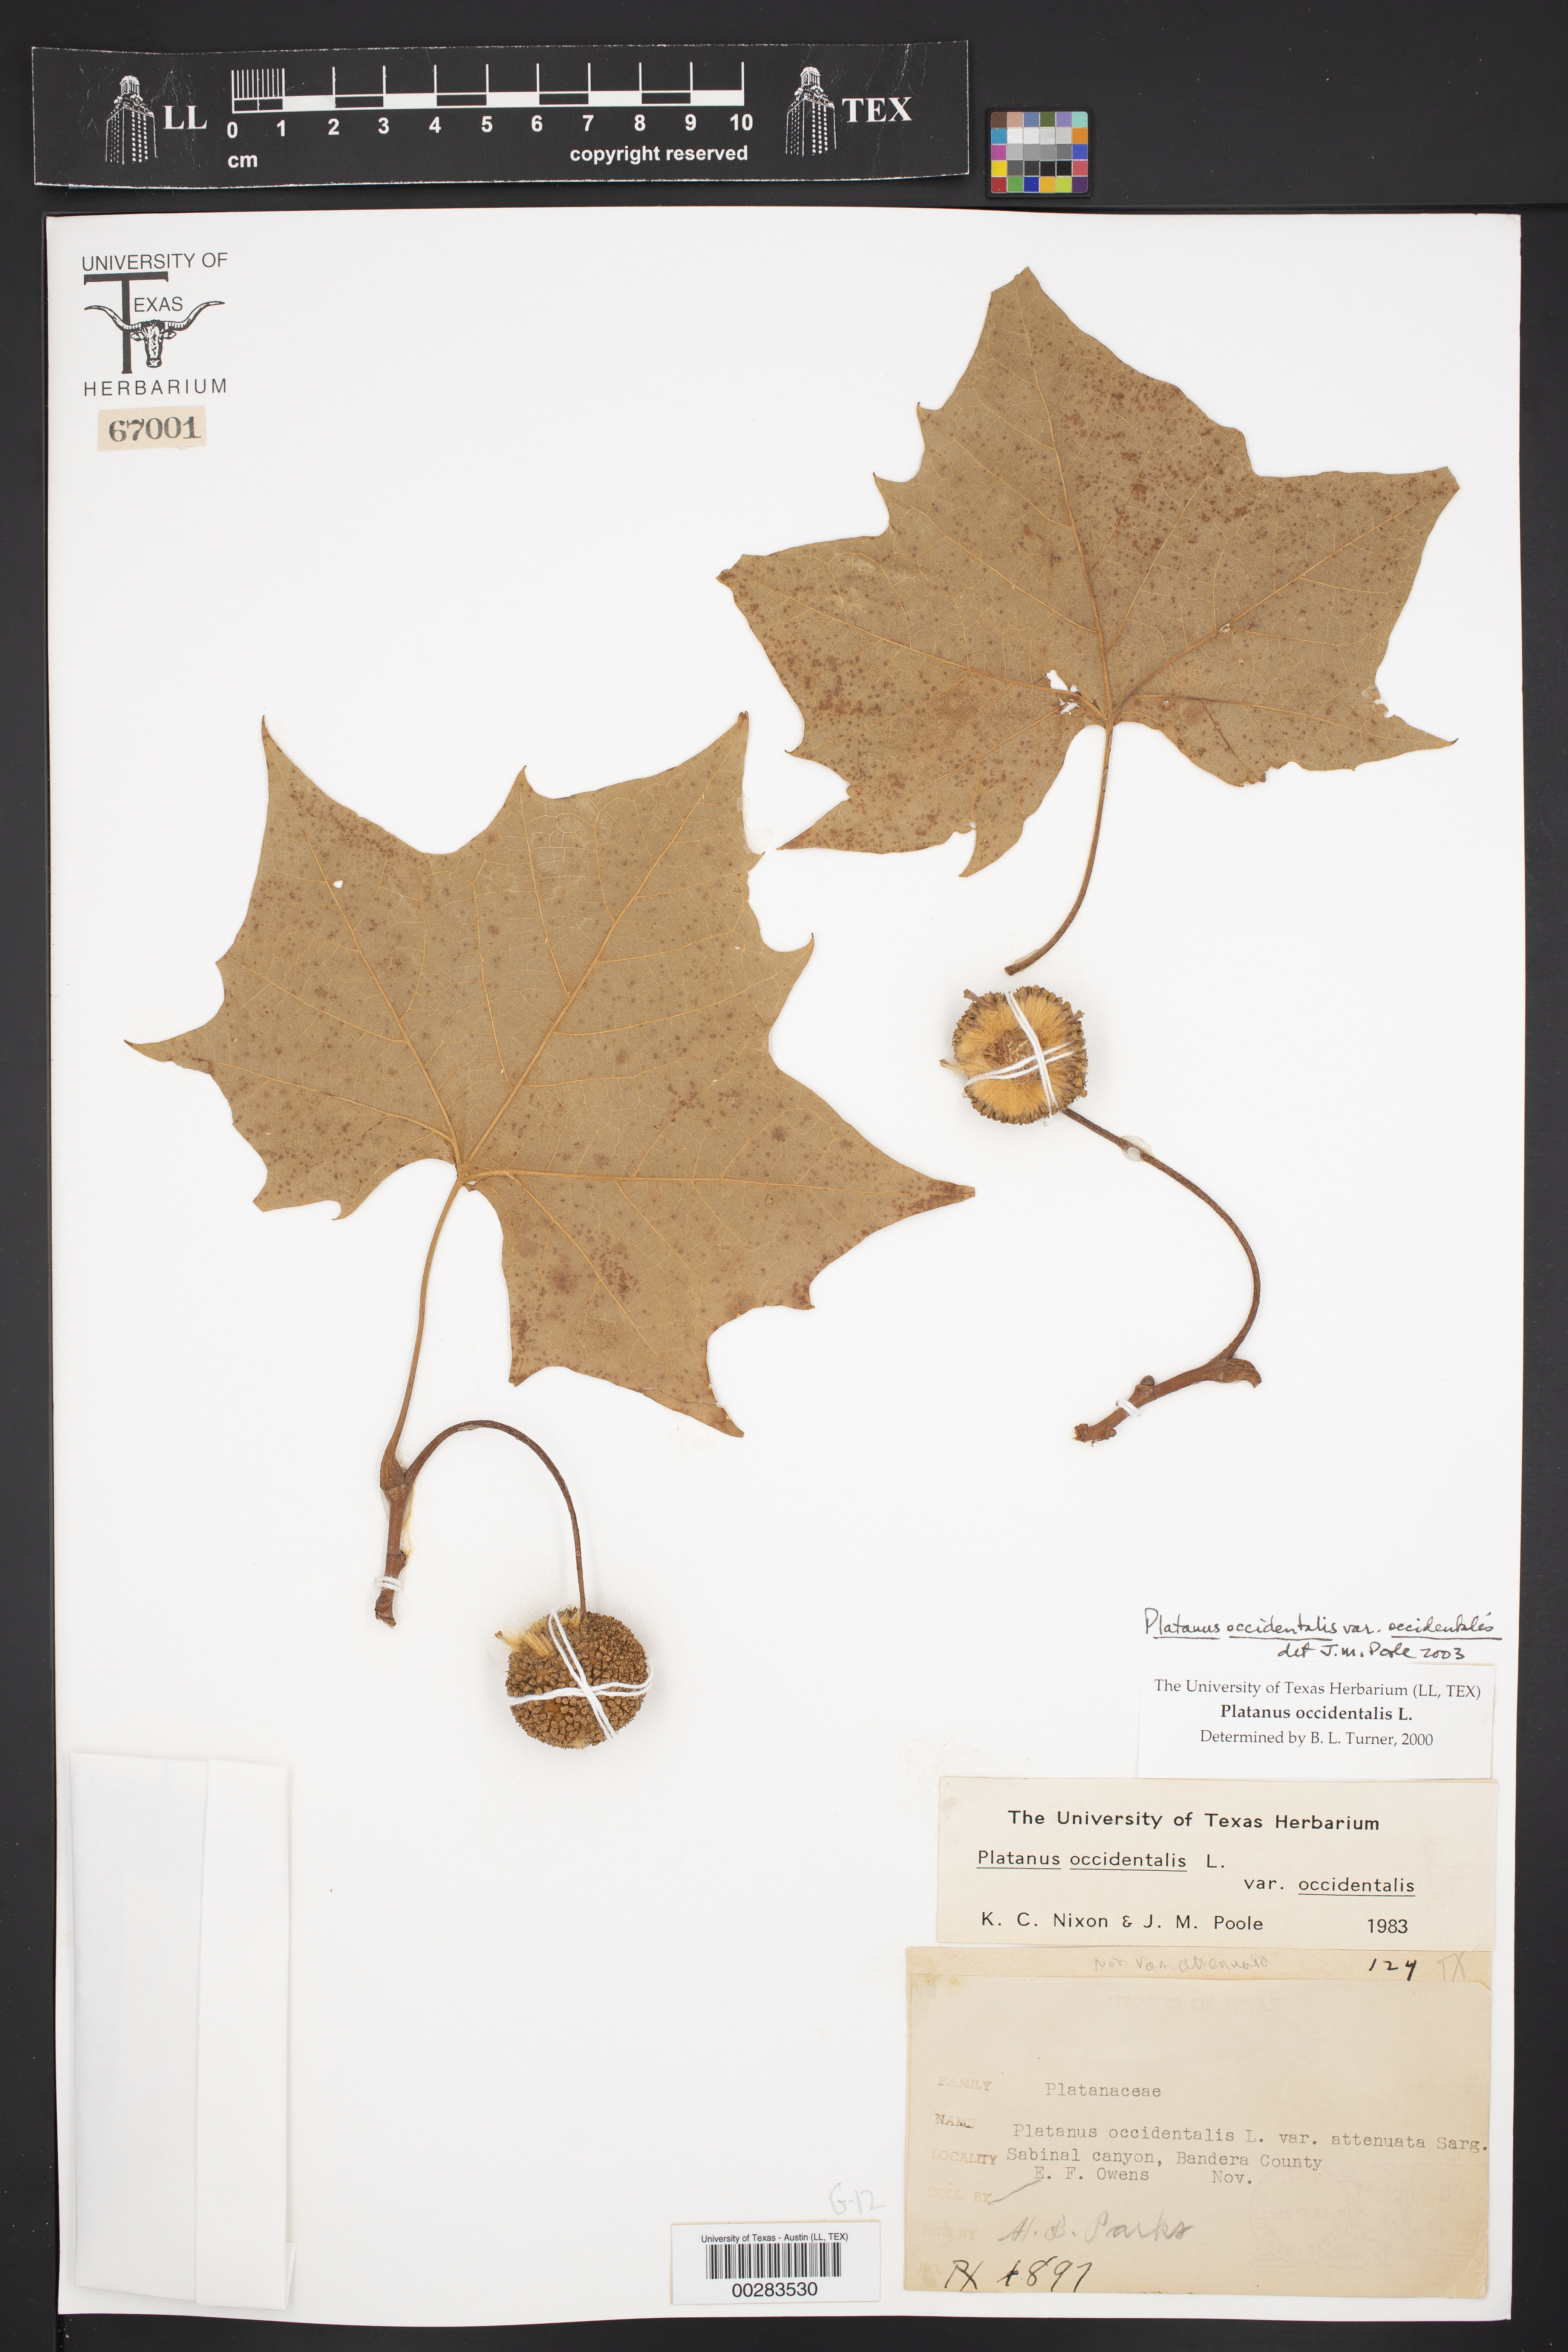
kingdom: Plantae
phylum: Tracheophyta
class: Magnoliopsida
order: Proteales
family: Platanaceae
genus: Platanus
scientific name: Platanus occidentalis
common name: American sycamore
